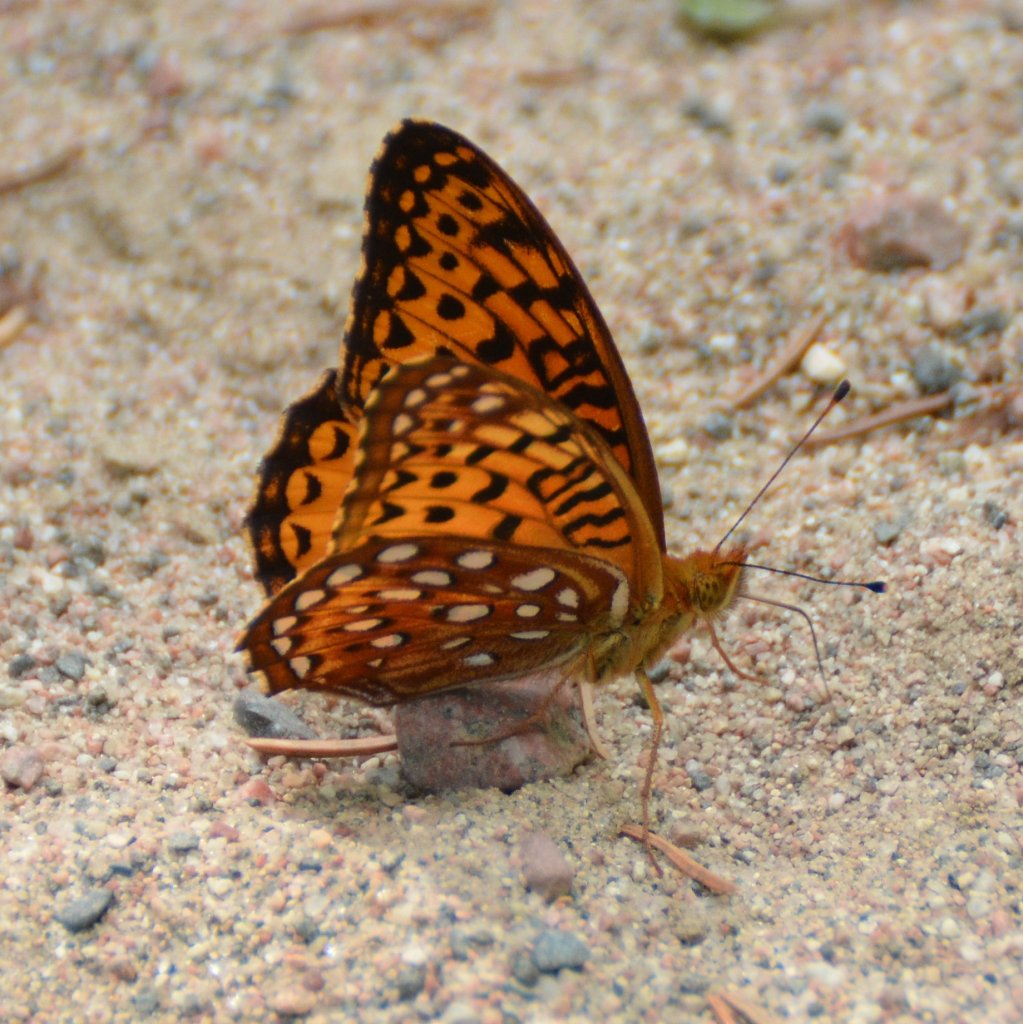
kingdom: Animalia
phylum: Arthropoda
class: Insecta
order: Lepidoptera
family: Nymphalidae
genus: Speyeria
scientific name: Speyeria aphrodite
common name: Aphrodite Fritillary
